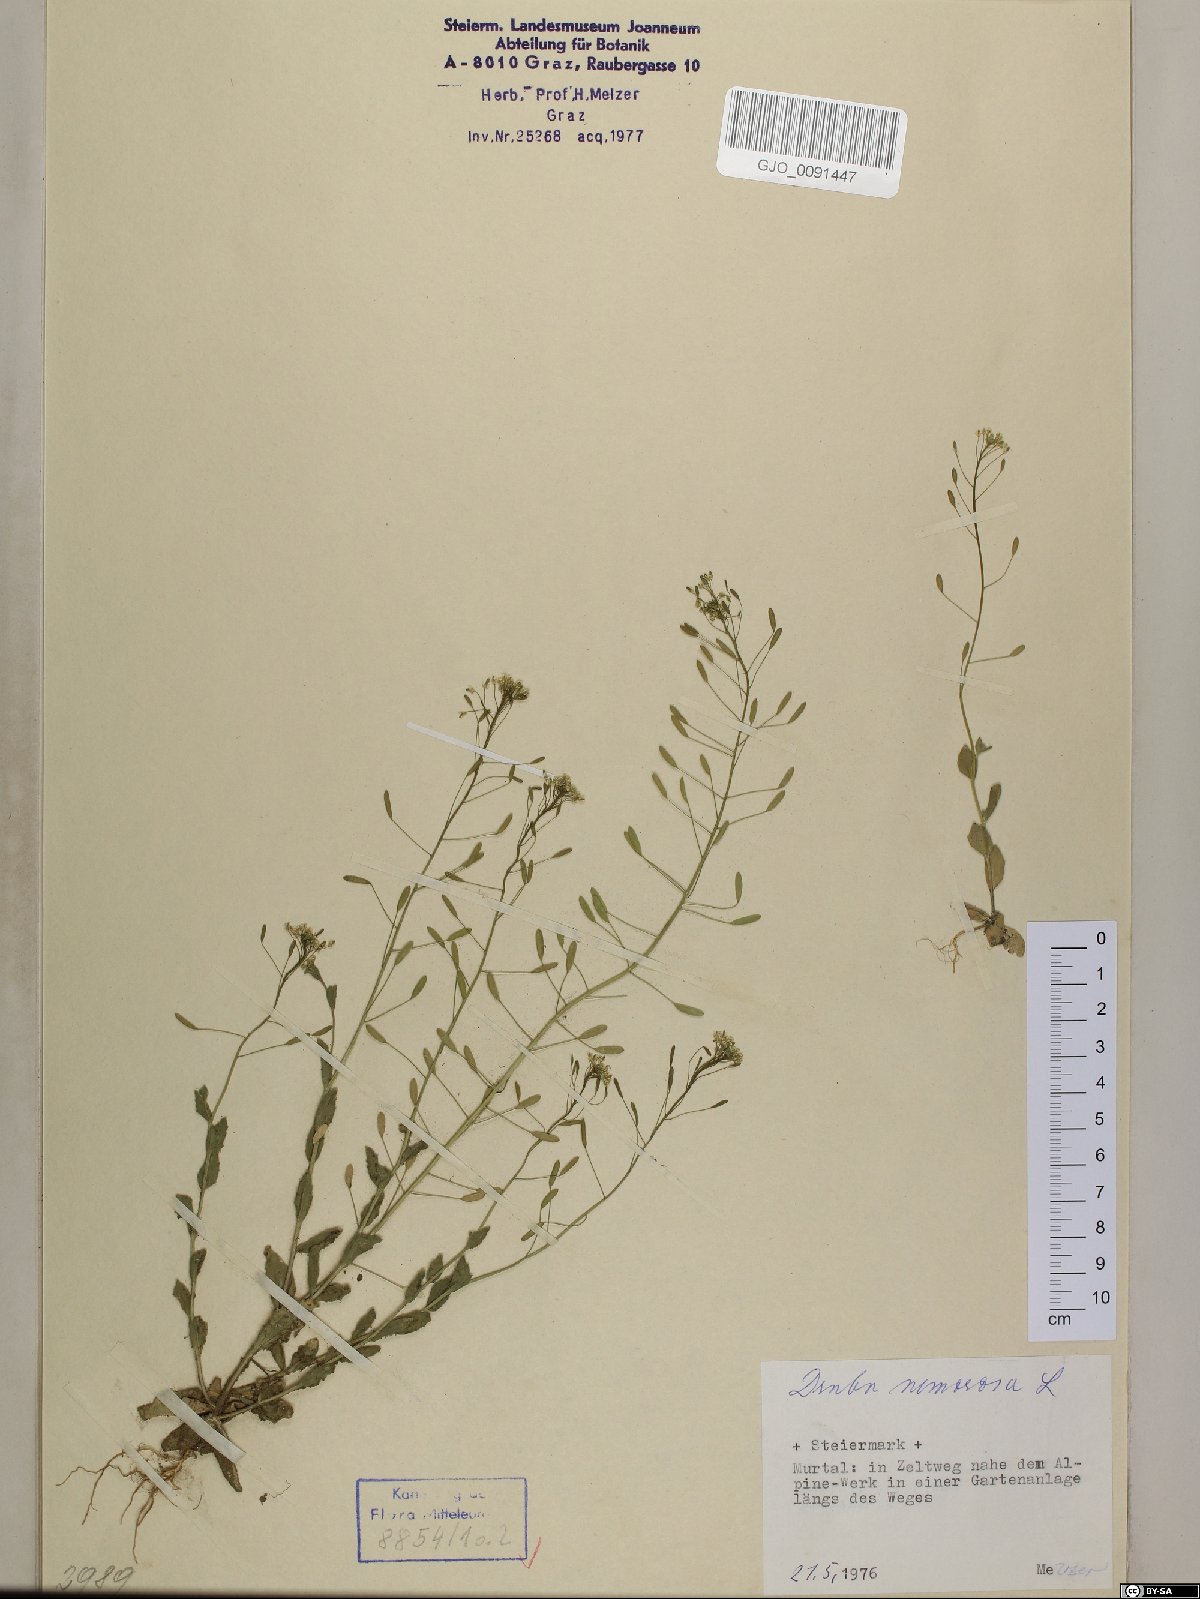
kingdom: Plantae
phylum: Tracheophyta
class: Magnoliopsida
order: Brassicales
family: Brassicaceae
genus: Draba
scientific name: Draba nemorosa
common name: Wood whitlow-grass
